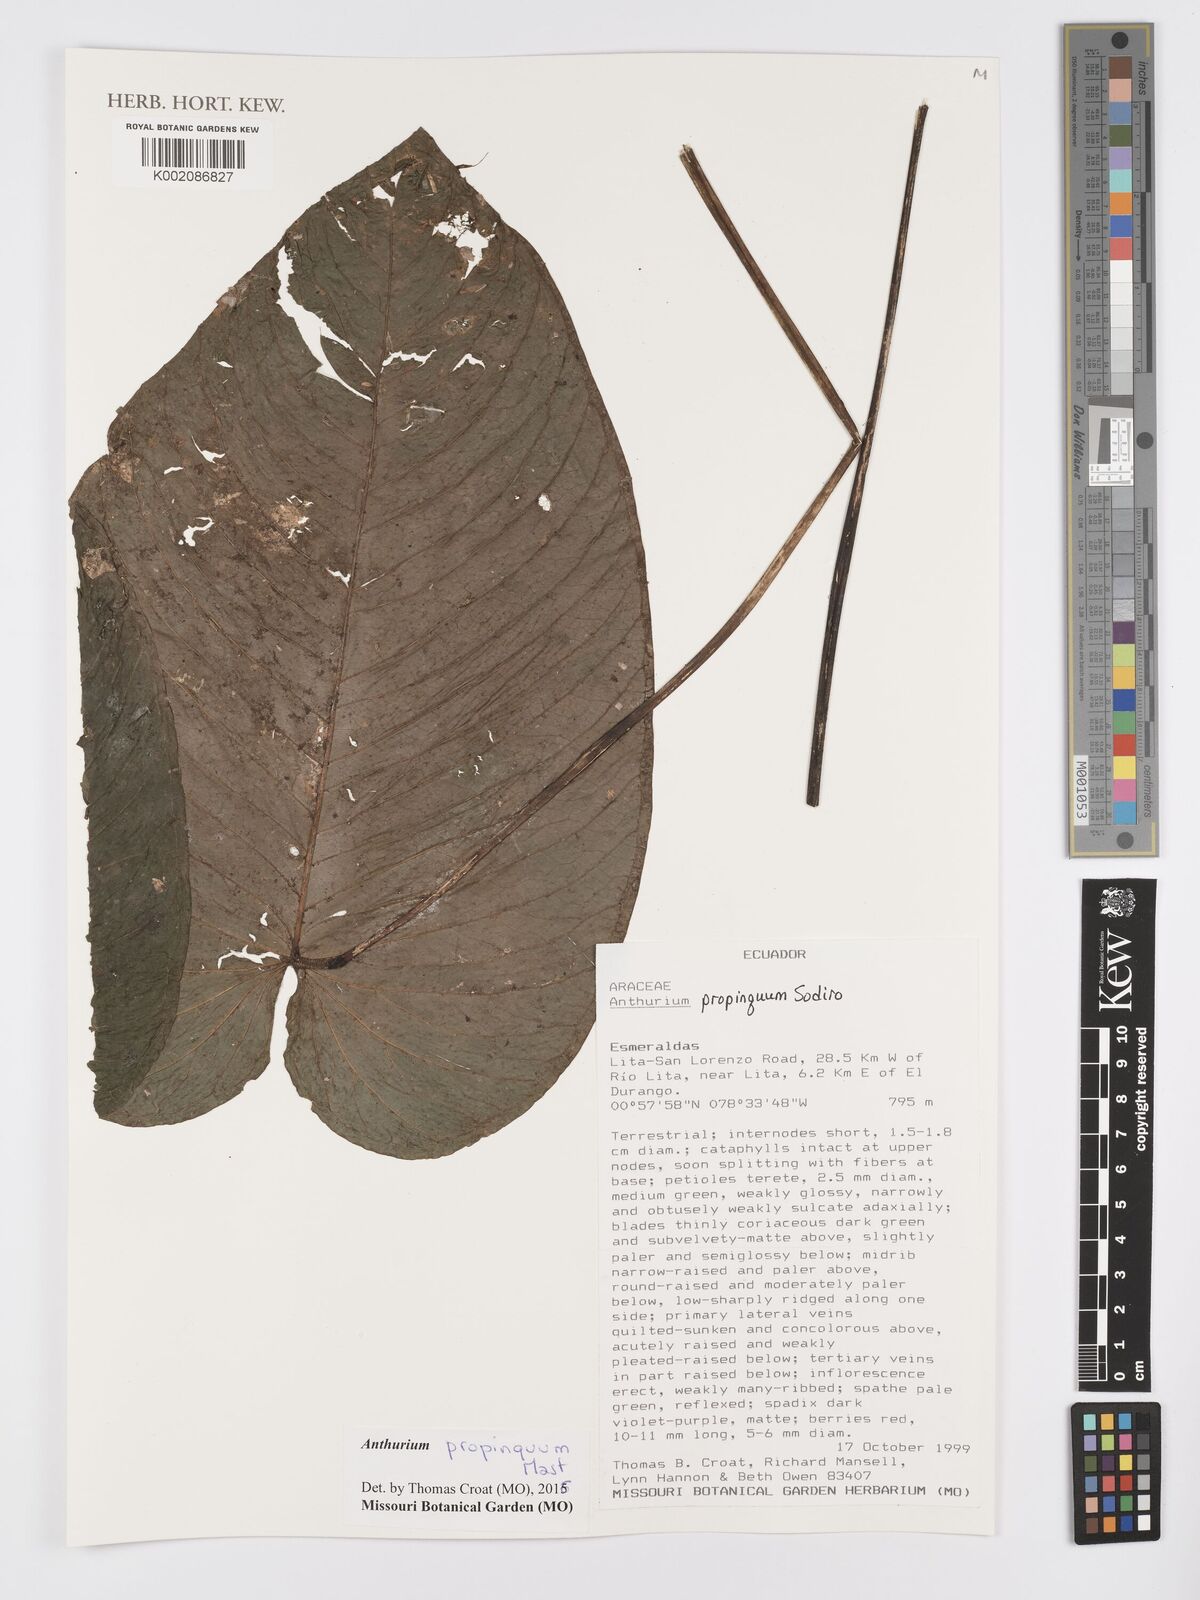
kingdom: Plantae
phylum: Tracheophyta
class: Liliopsida
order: Alismatales
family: Araceae
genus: Anthurium
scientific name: Anthurium cuspidatum
